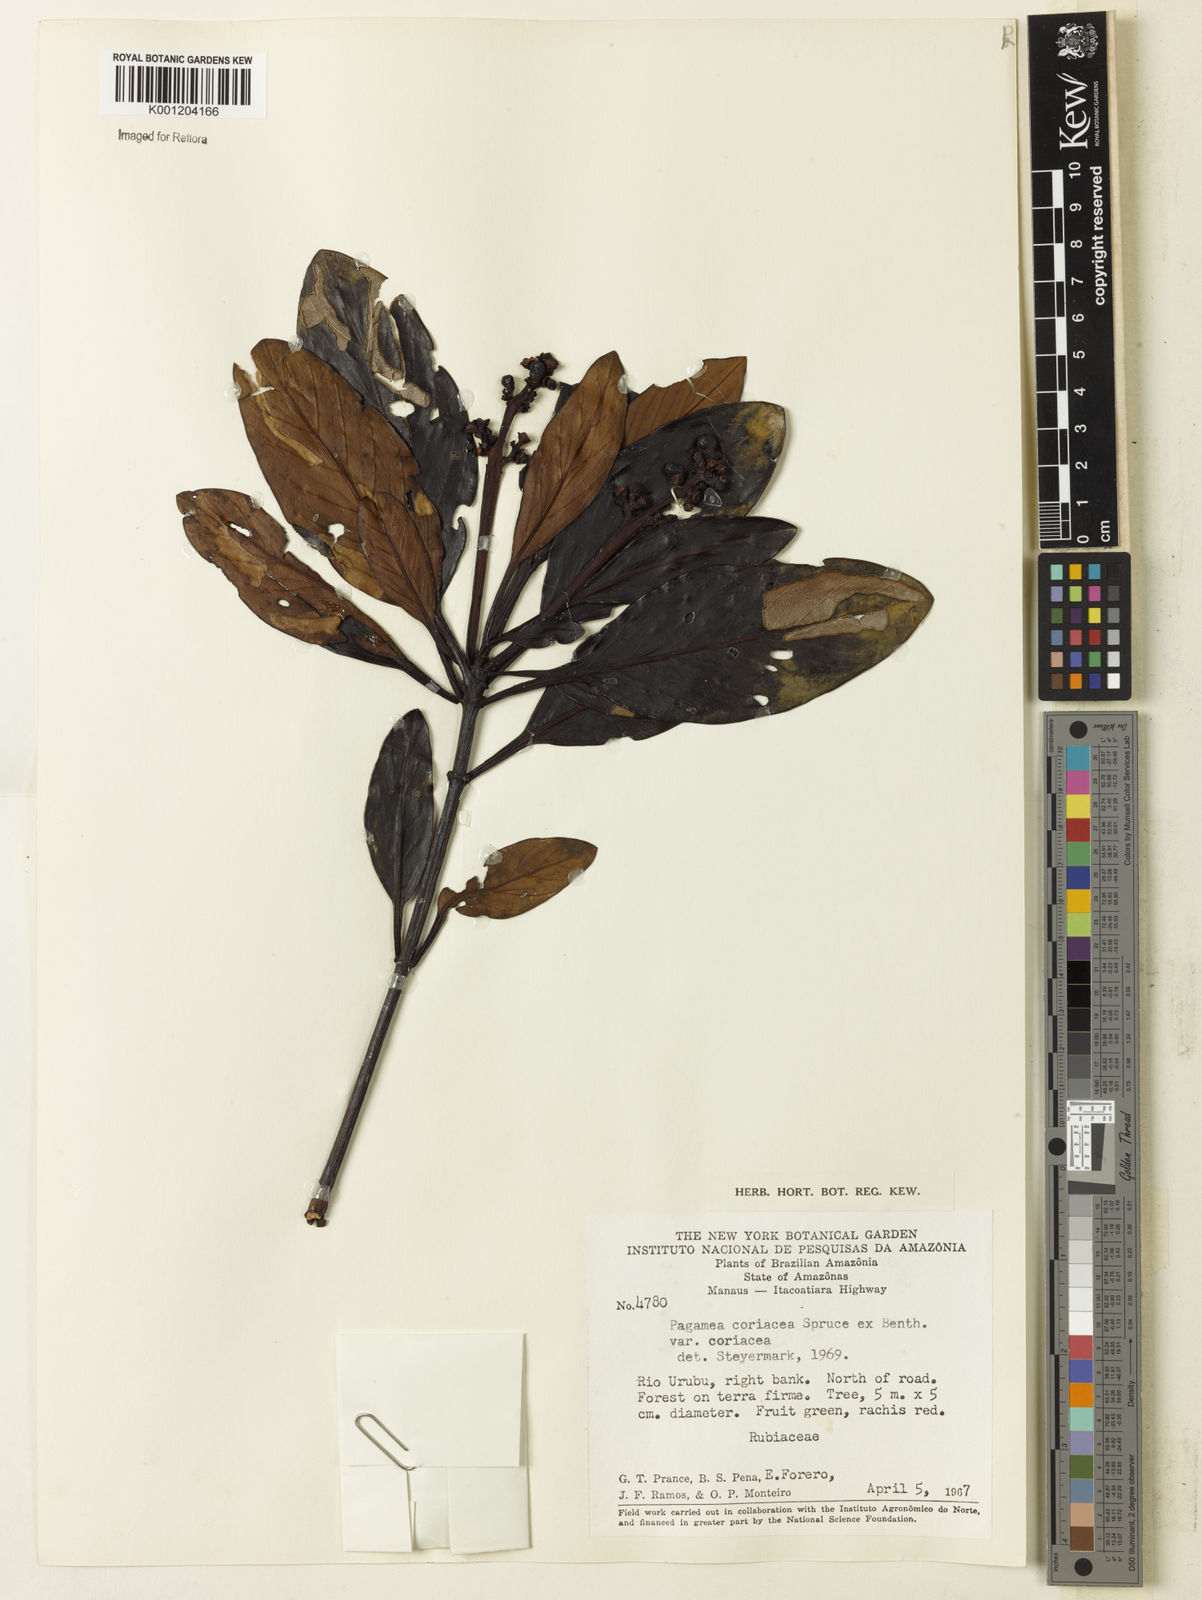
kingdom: Plantae
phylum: Tracheophyta
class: Magnoliopsida
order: Gentianales
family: Rubiaceae
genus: Pagamea
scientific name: Pagamea coriacea
